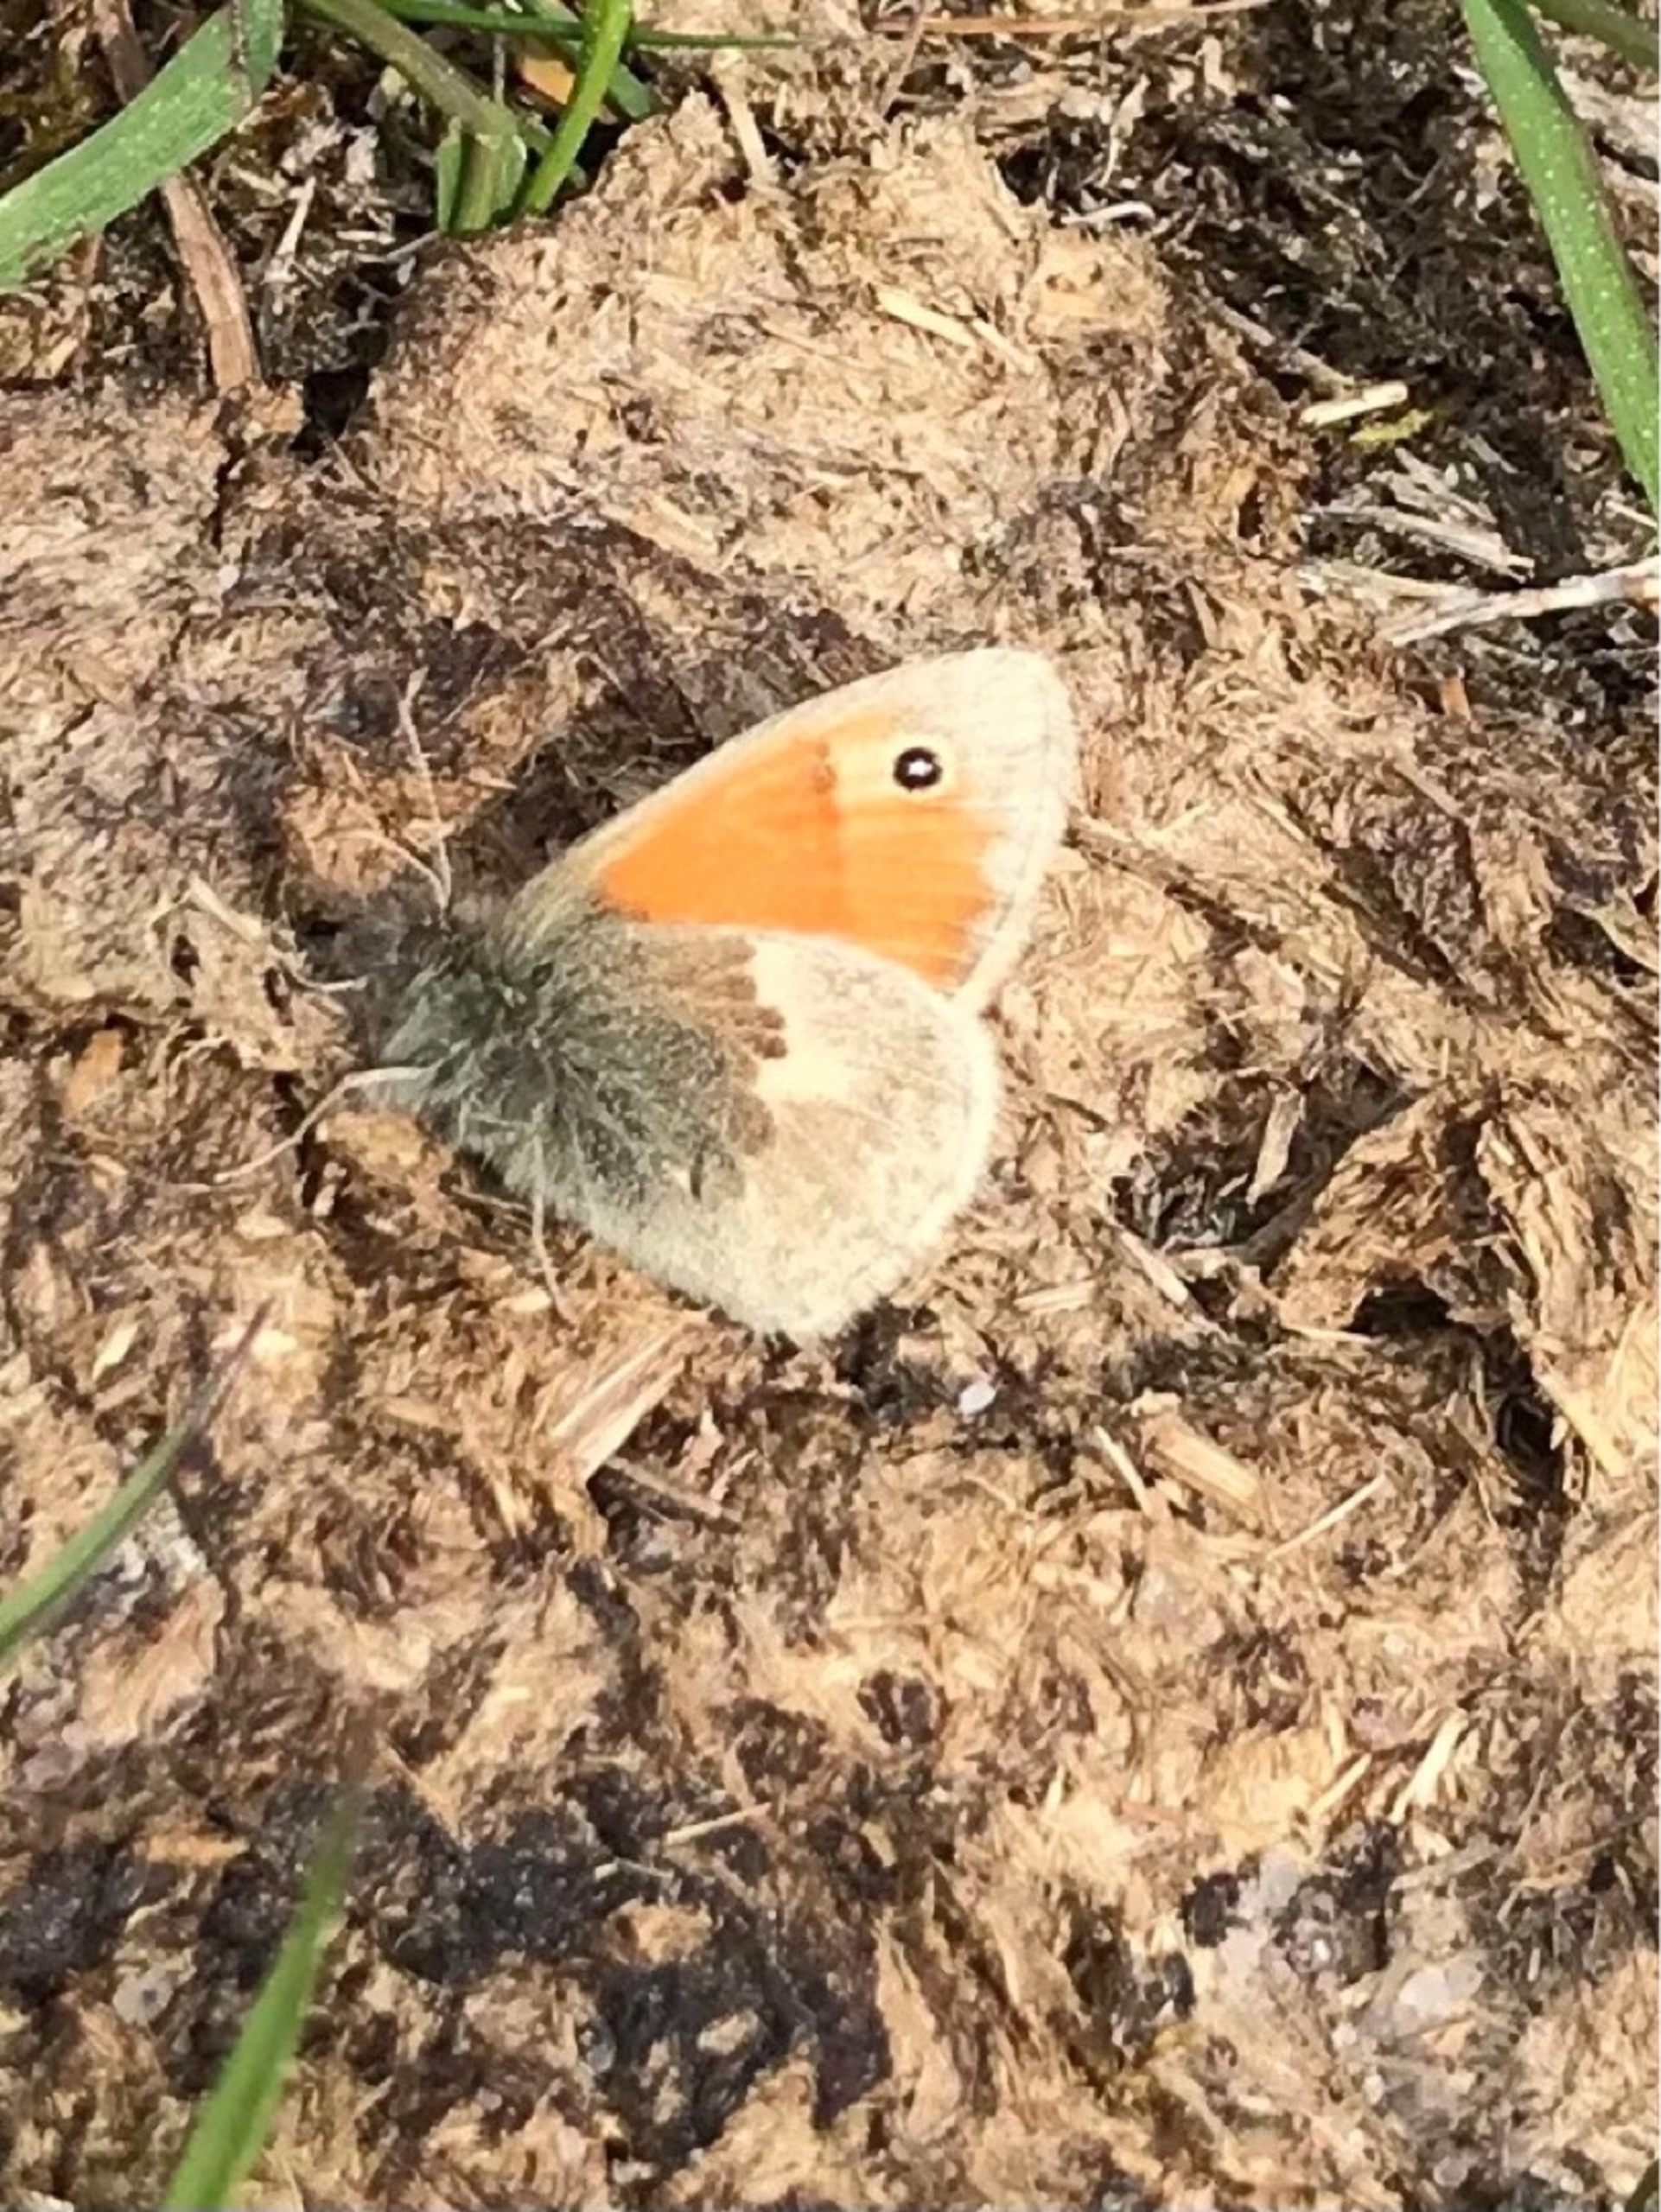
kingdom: Animalia
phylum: Arthropoda
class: Insecta
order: Lepidoptera
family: Nymphalidae
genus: Coenonympha
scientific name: Coenonympha pamphilus
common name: Okkergul randøje
